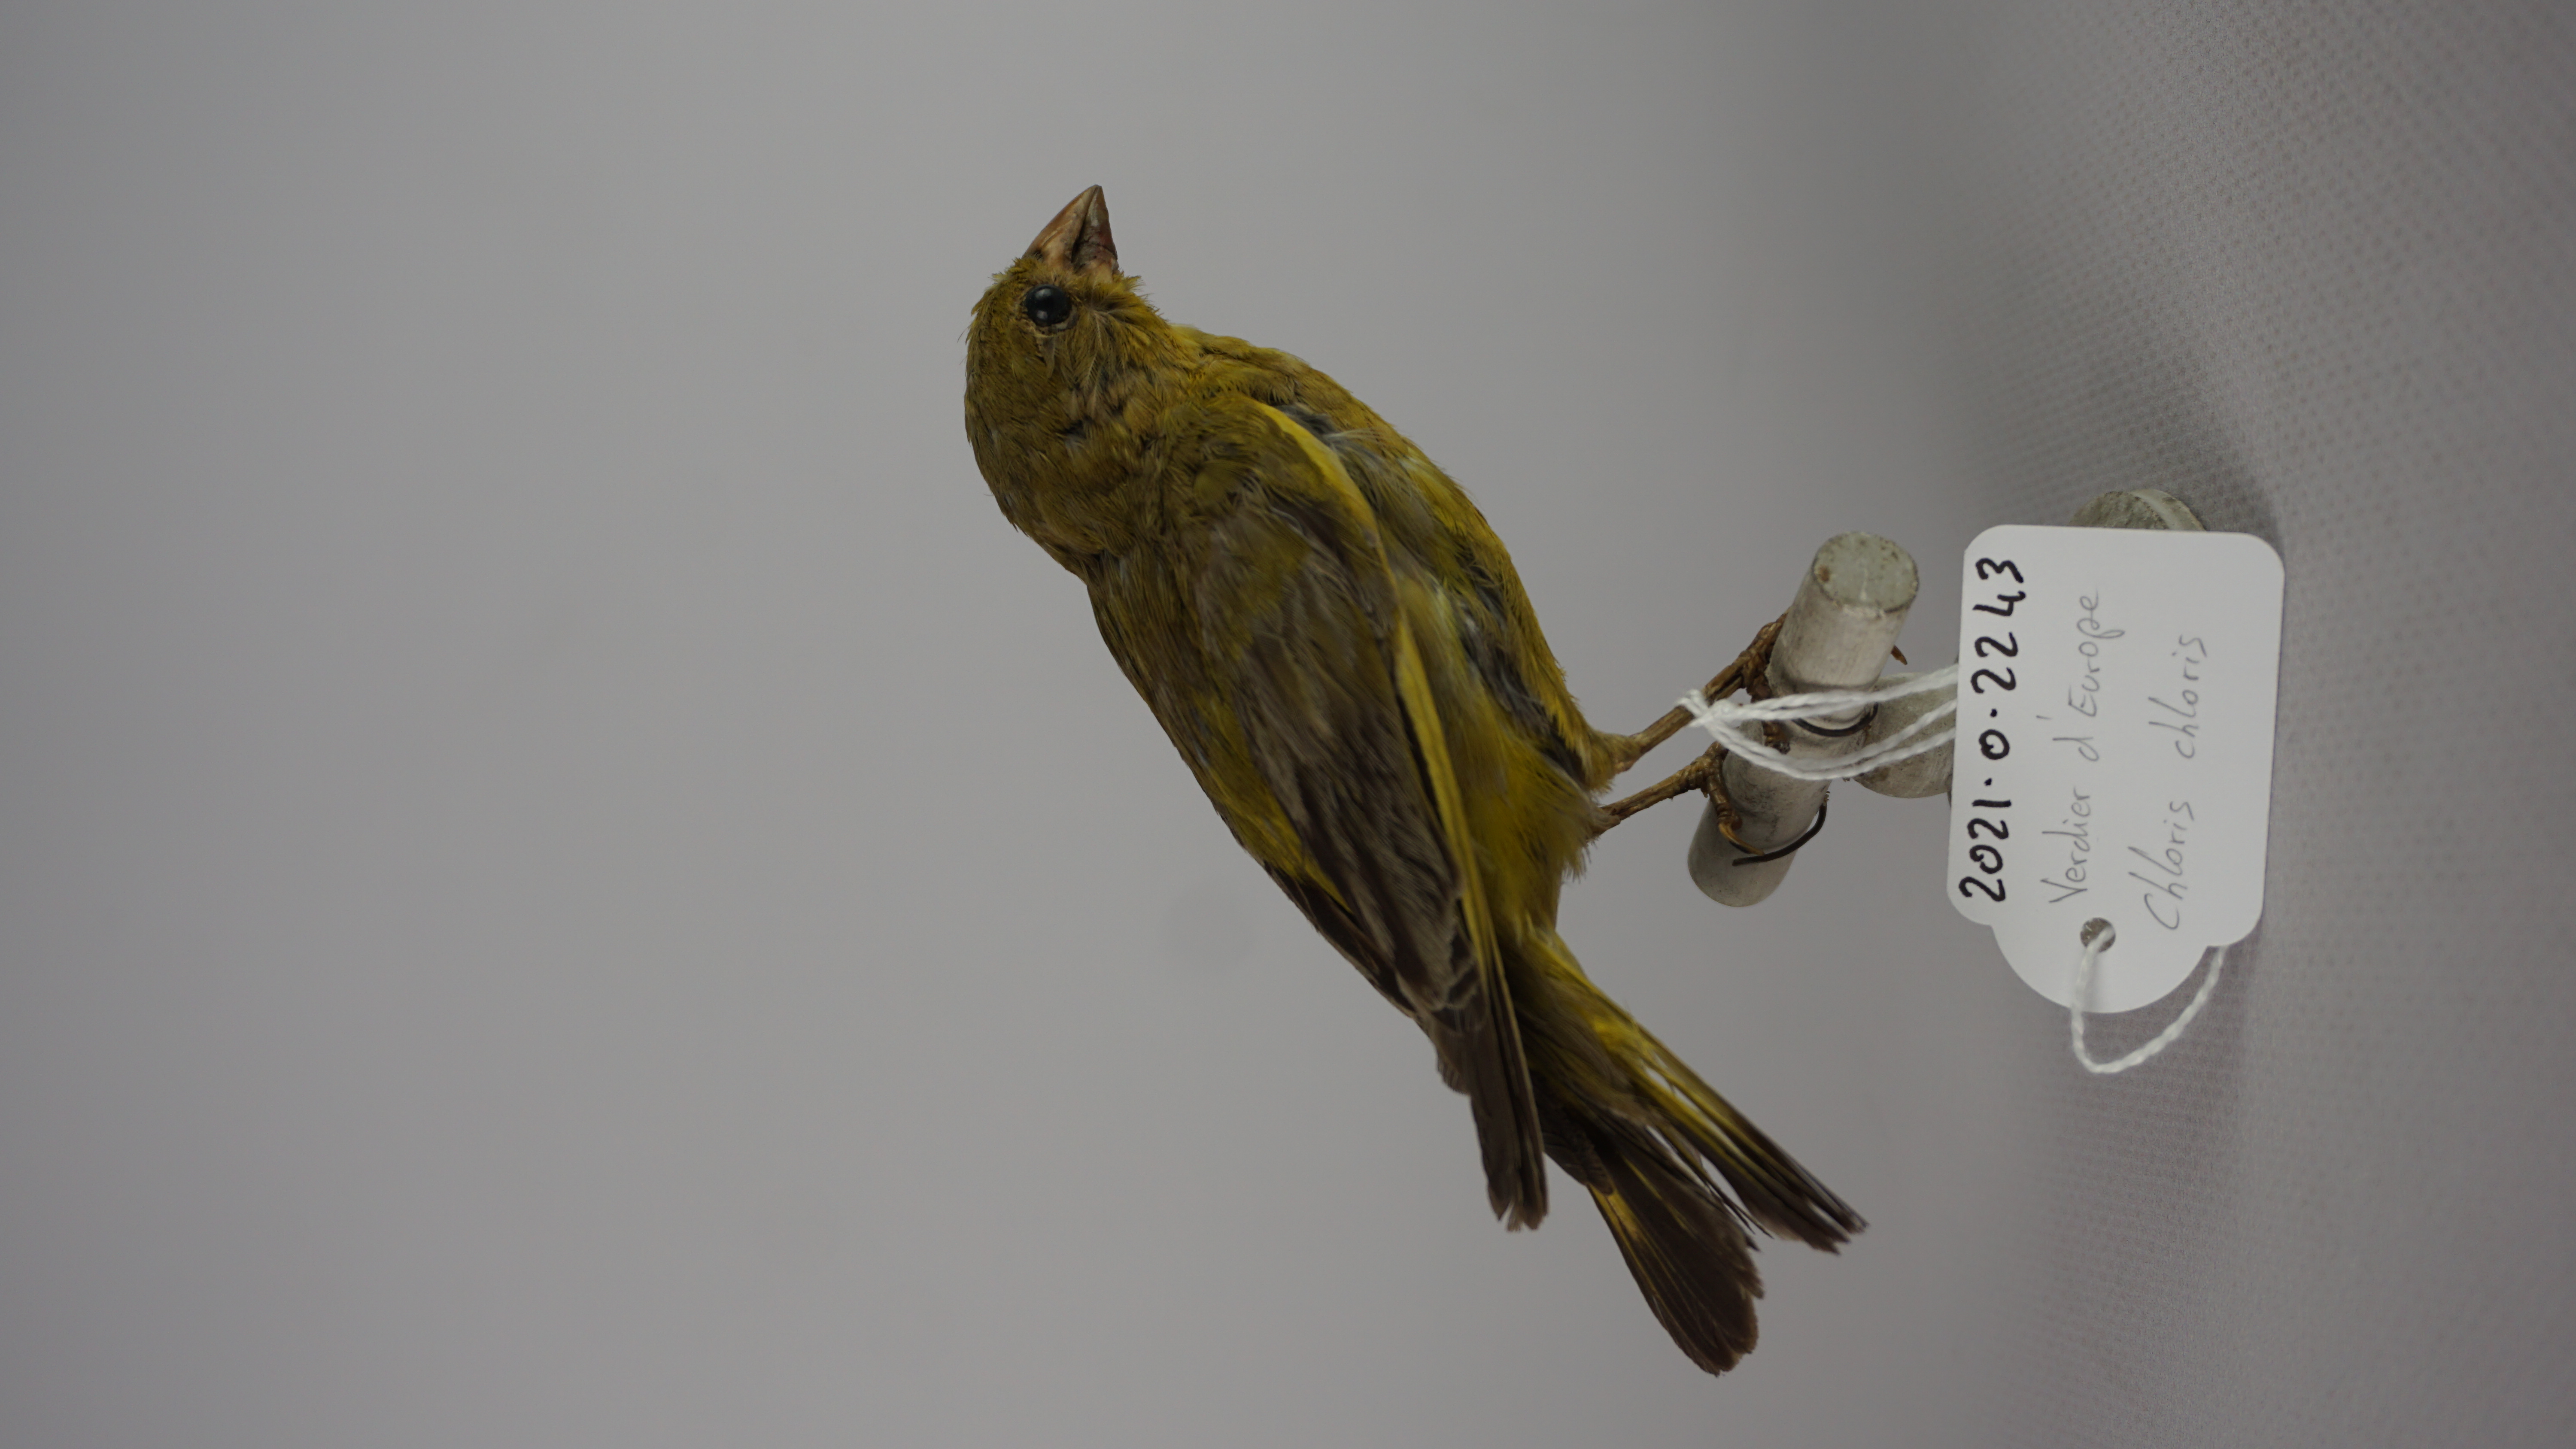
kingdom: Plantae
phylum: Tracheophyta
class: Liliopsida
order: Poales
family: Poaceae
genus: Chloris
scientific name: Chloris chloris
